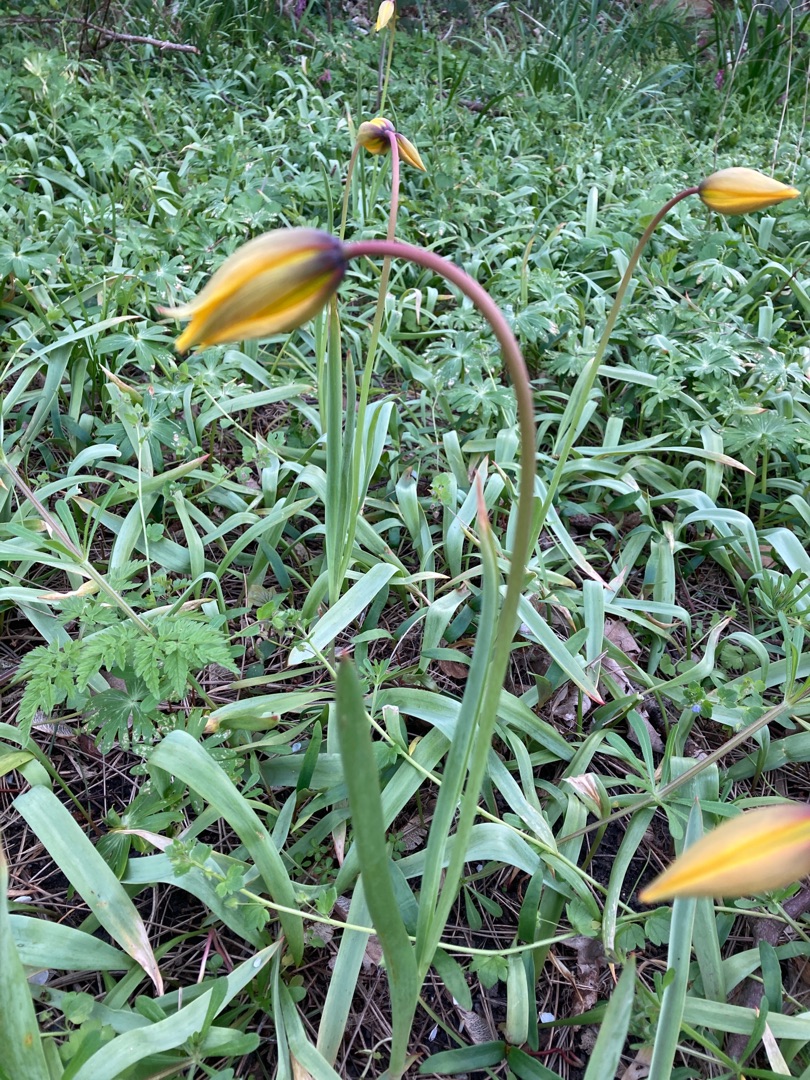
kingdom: Plantae
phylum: Tracheophyta
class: Liliopsida
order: Liliales
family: Liliaceae
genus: Tulipa
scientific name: Tulipa sylvestris
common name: Vild tulipan
